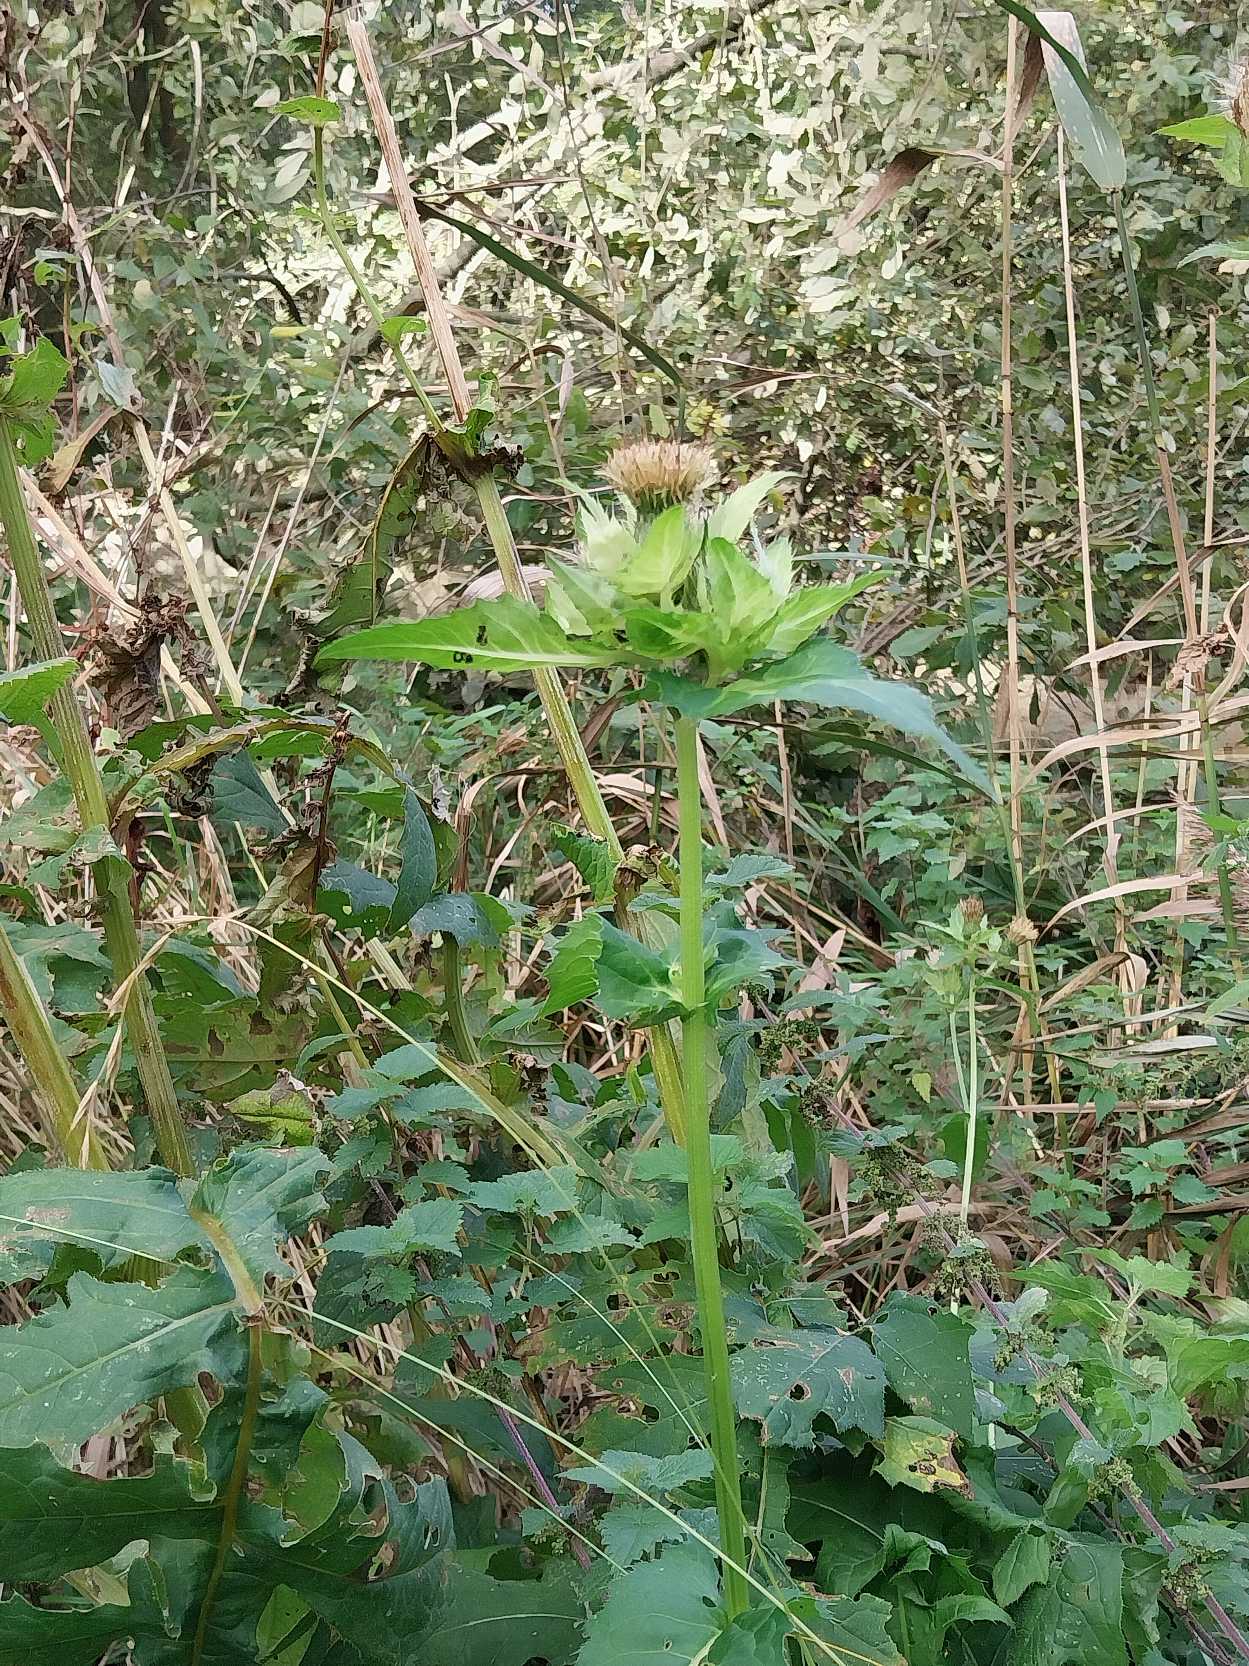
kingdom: Plantae
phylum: Tracheophyta
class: Magnoliopsida
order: Asterales
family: Asteraceae
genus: Cirsium
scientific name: Cirsium oleraceum
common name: Kål-tidsel
